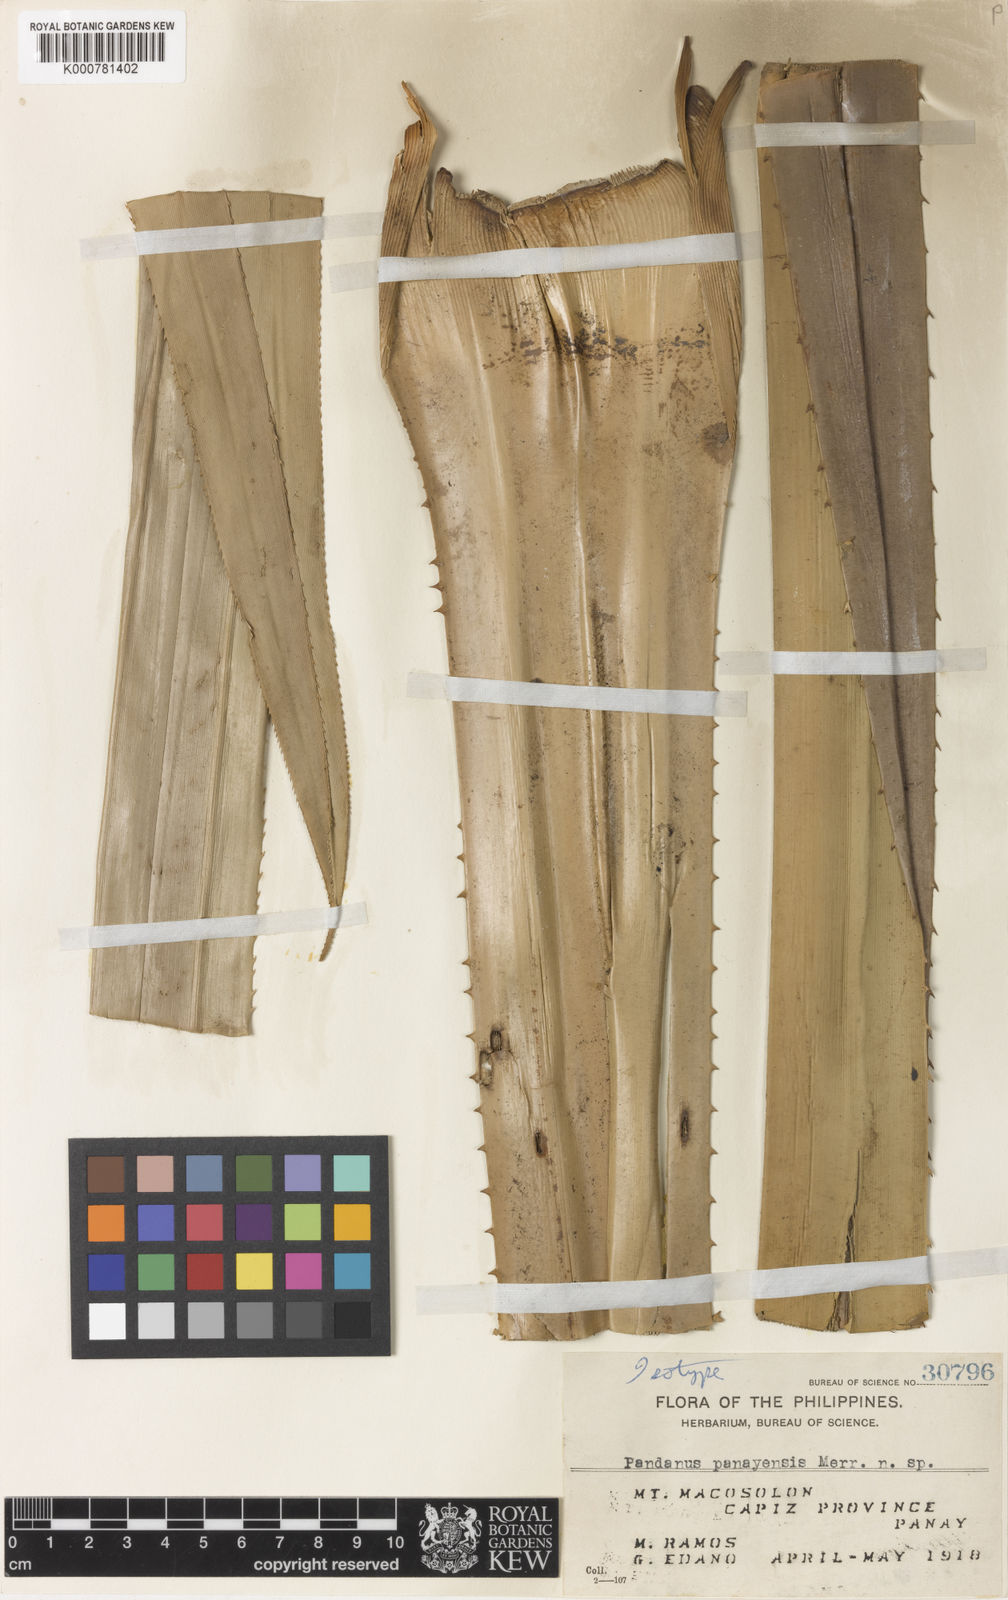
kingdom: Plantae
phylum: Tracheophyta
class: Liliopsida
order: Pandanales
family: Pandanaceae
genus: Pandanus
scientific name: Pandanus panayensis
